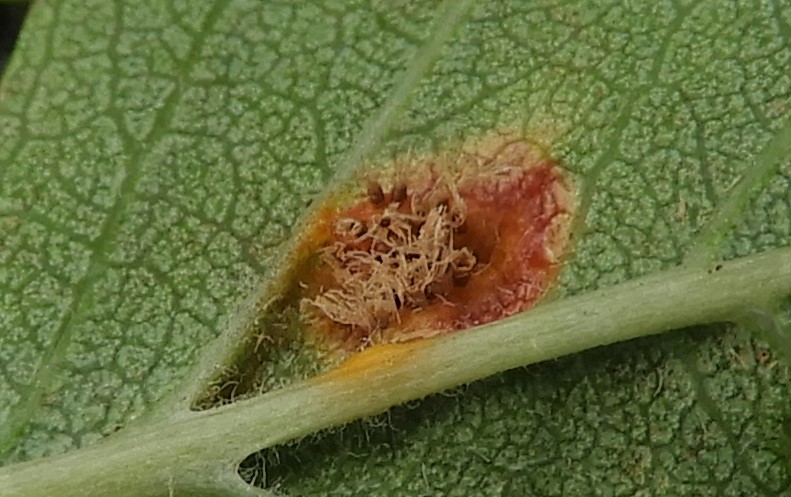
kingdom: Fungi
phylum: Basidiomycota
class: Pucciniomycetes
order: Pucciniales
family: Gymnosporangiaceae
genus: Gymnosporangium
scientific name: Gymnosporangium
